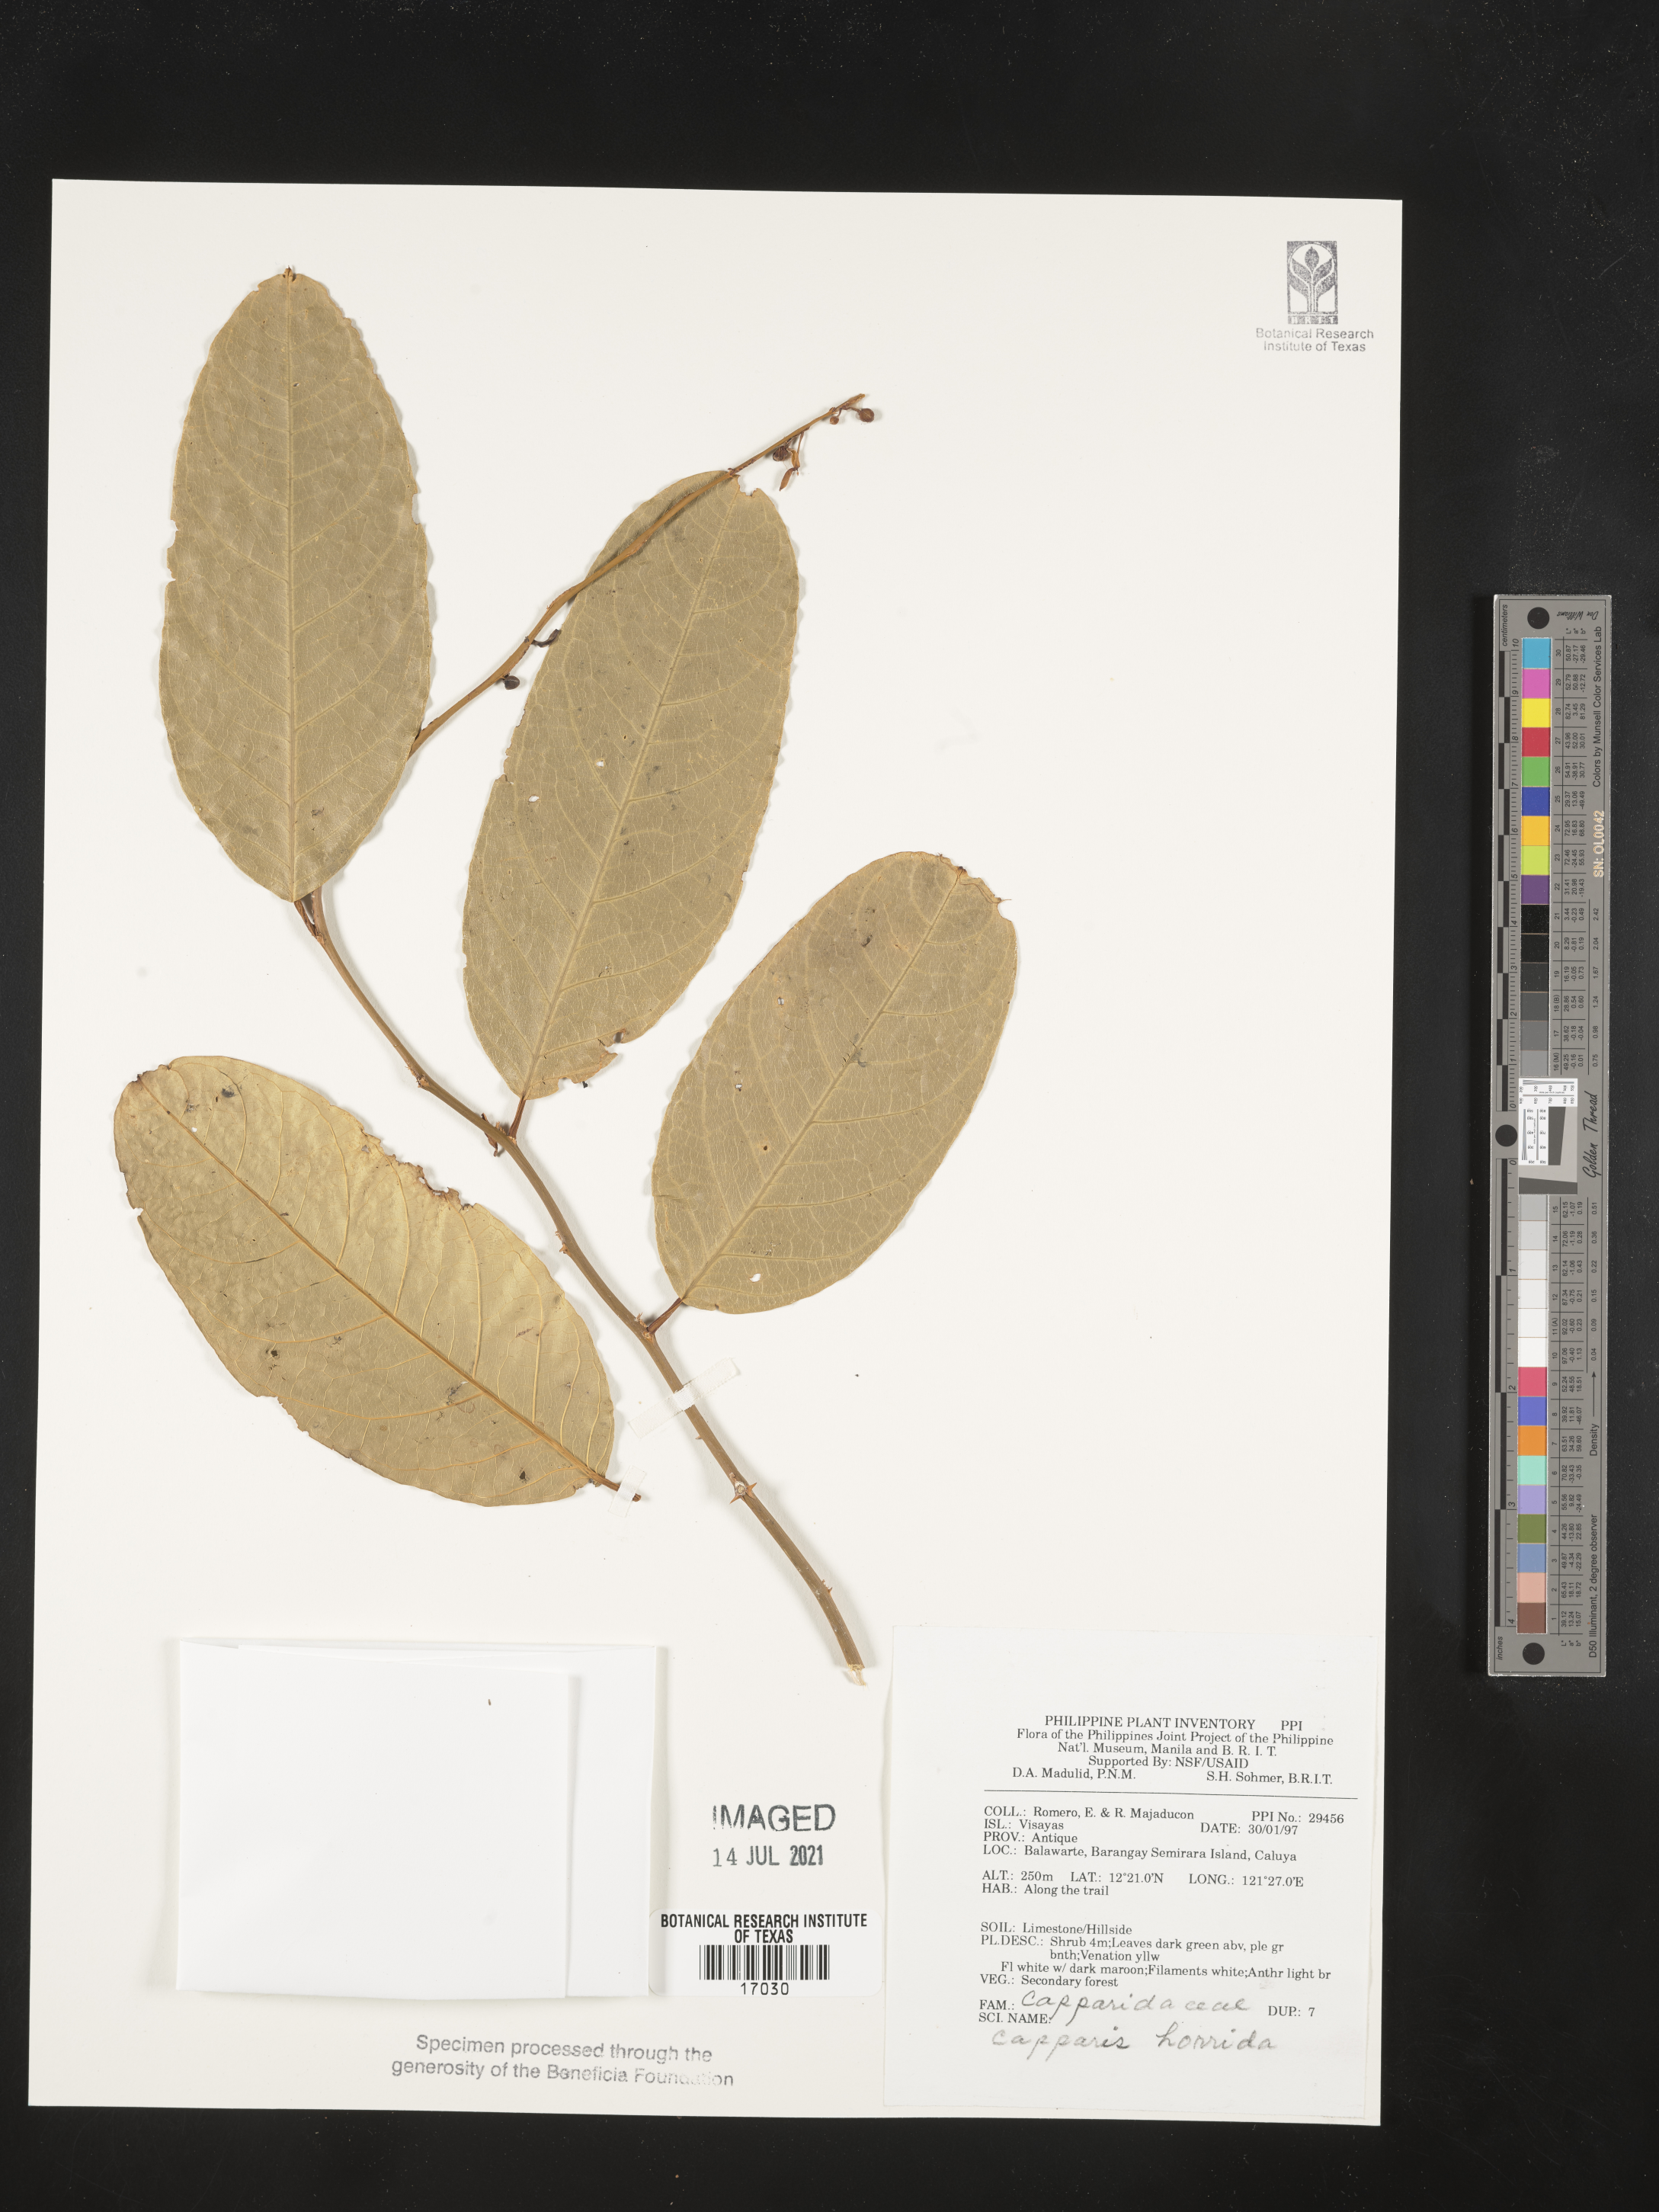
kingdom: Plantae
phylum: Tracheophyta
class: Magnoliopsida
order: Brassicales
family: Capparaceae
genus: Capparis
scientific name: Capparis divaricata
